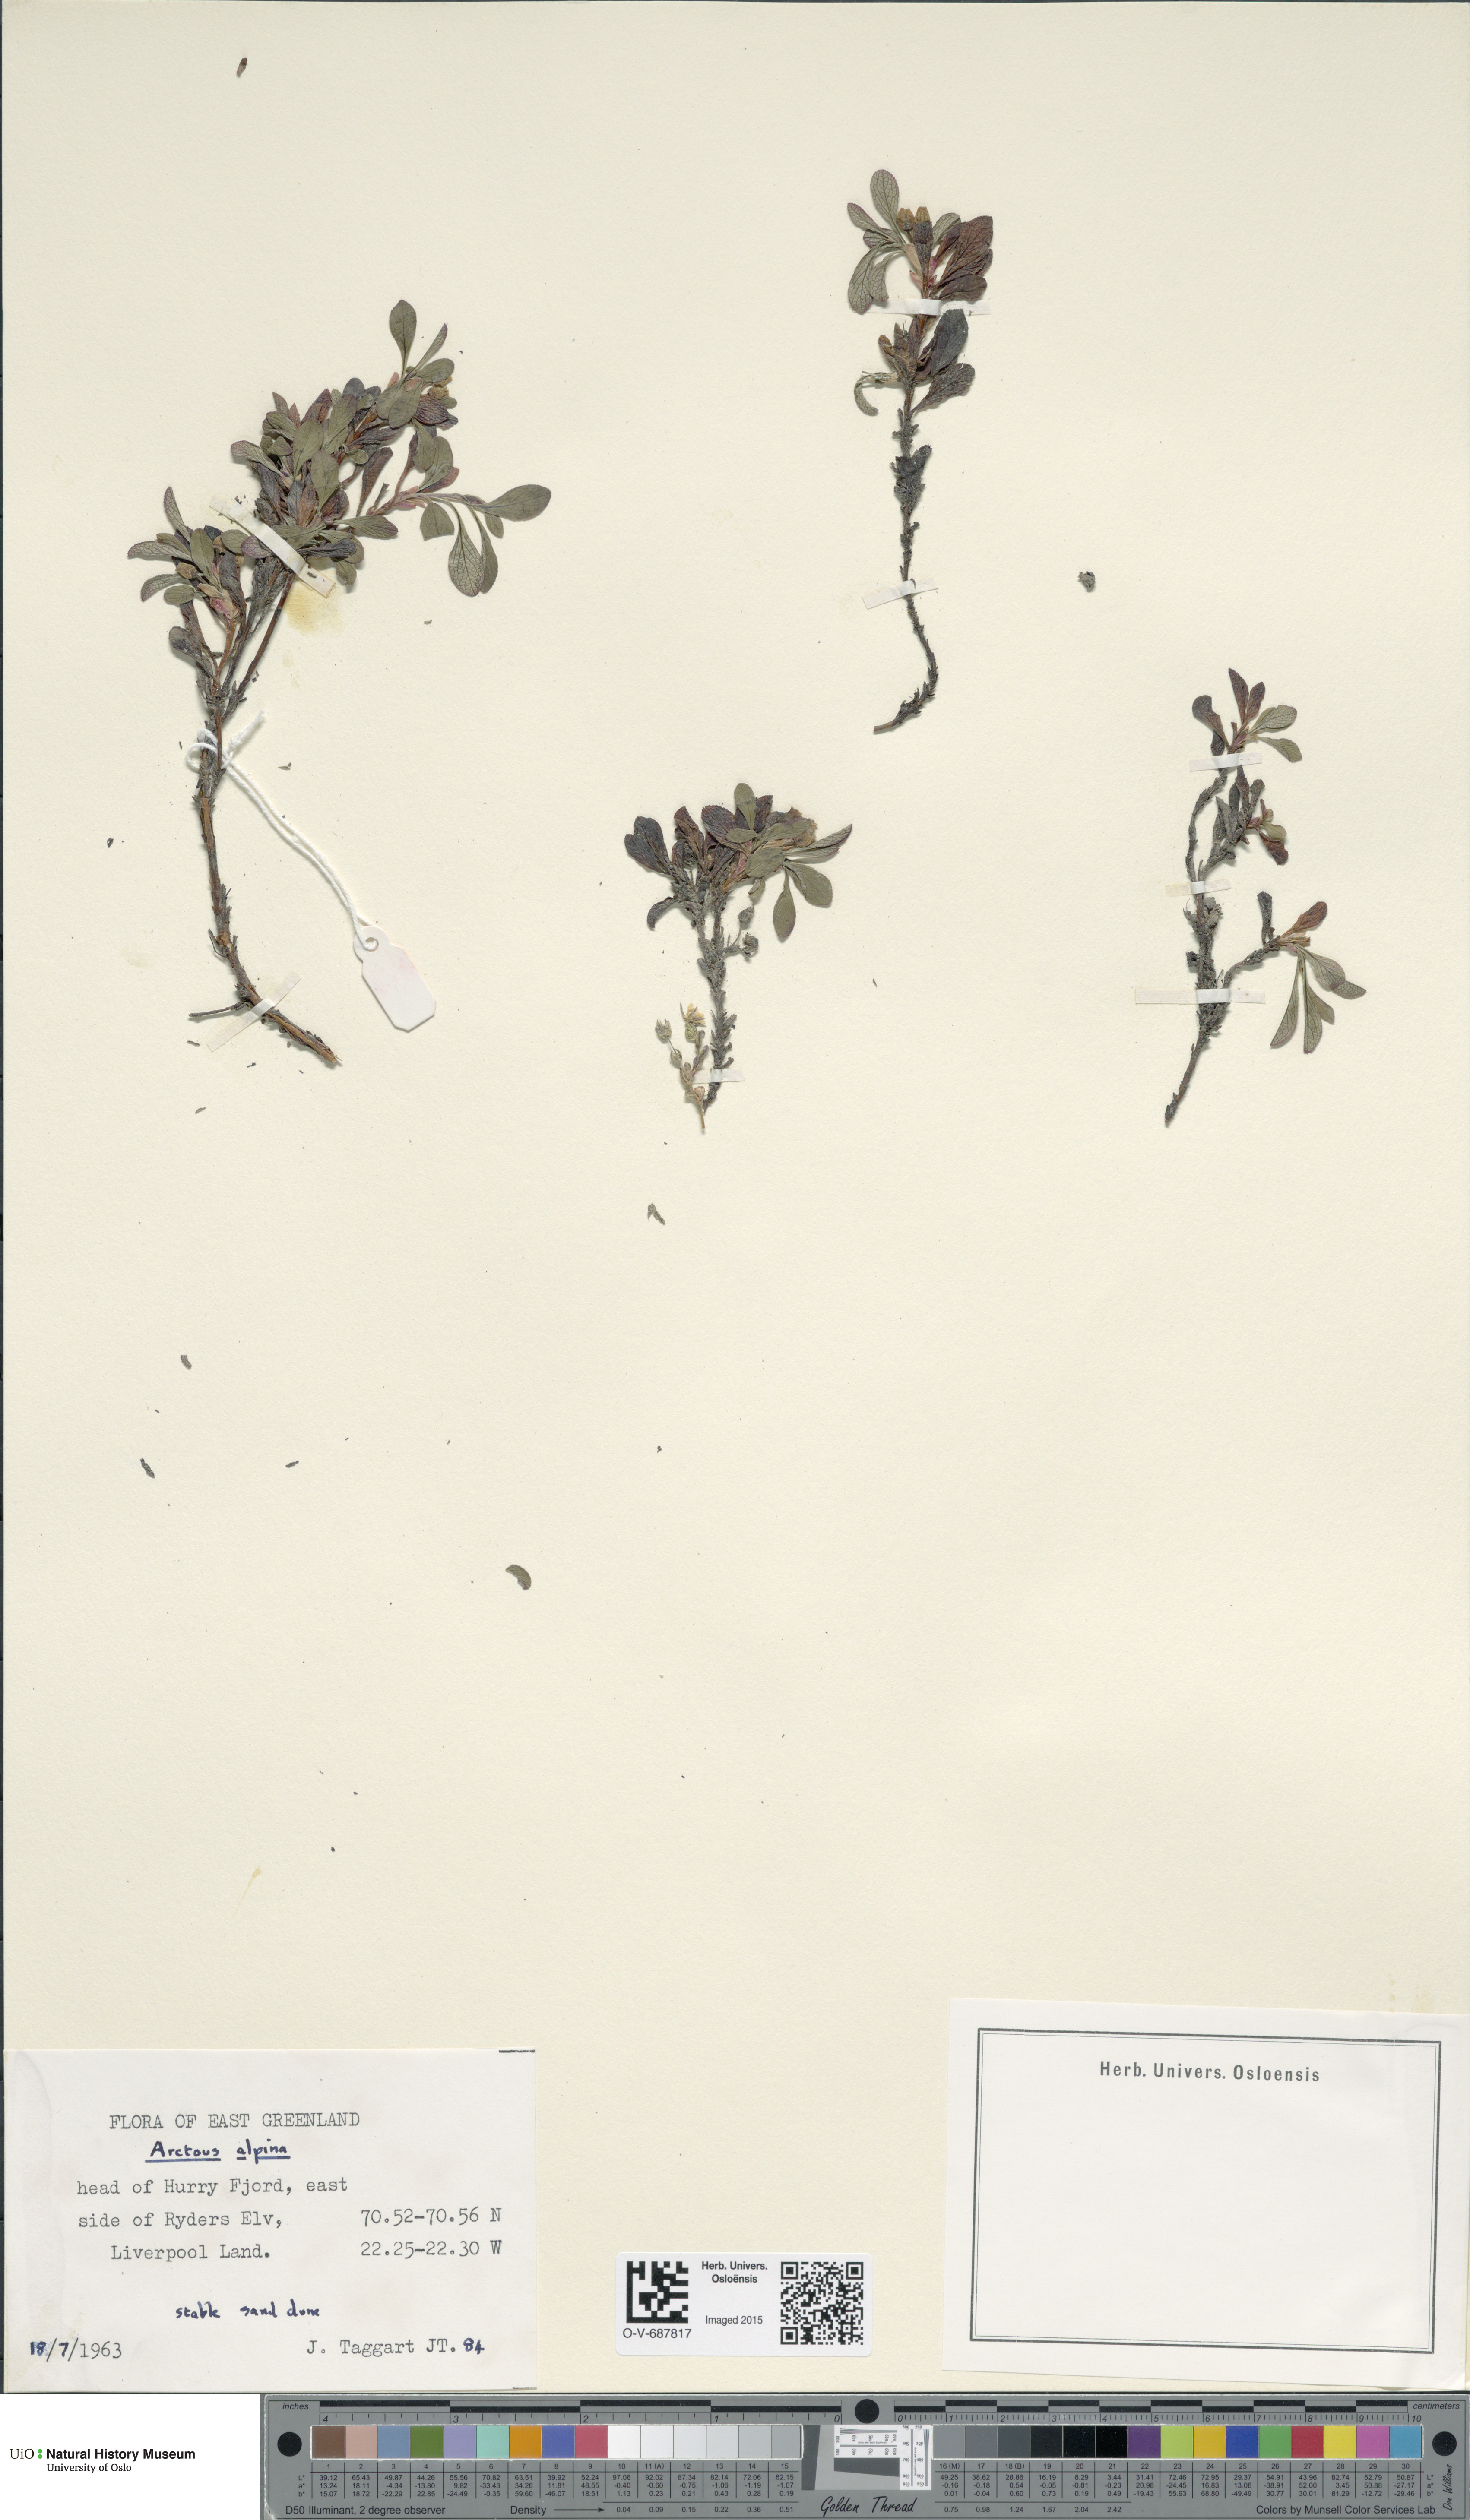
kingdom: Plantae
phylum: Tracheophyta
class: Magnoliopsida
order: Ericales
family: Ericaceae
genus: Arctostaphylos
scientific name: Arctostaphylos alpinus
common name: Alpine bearberry
